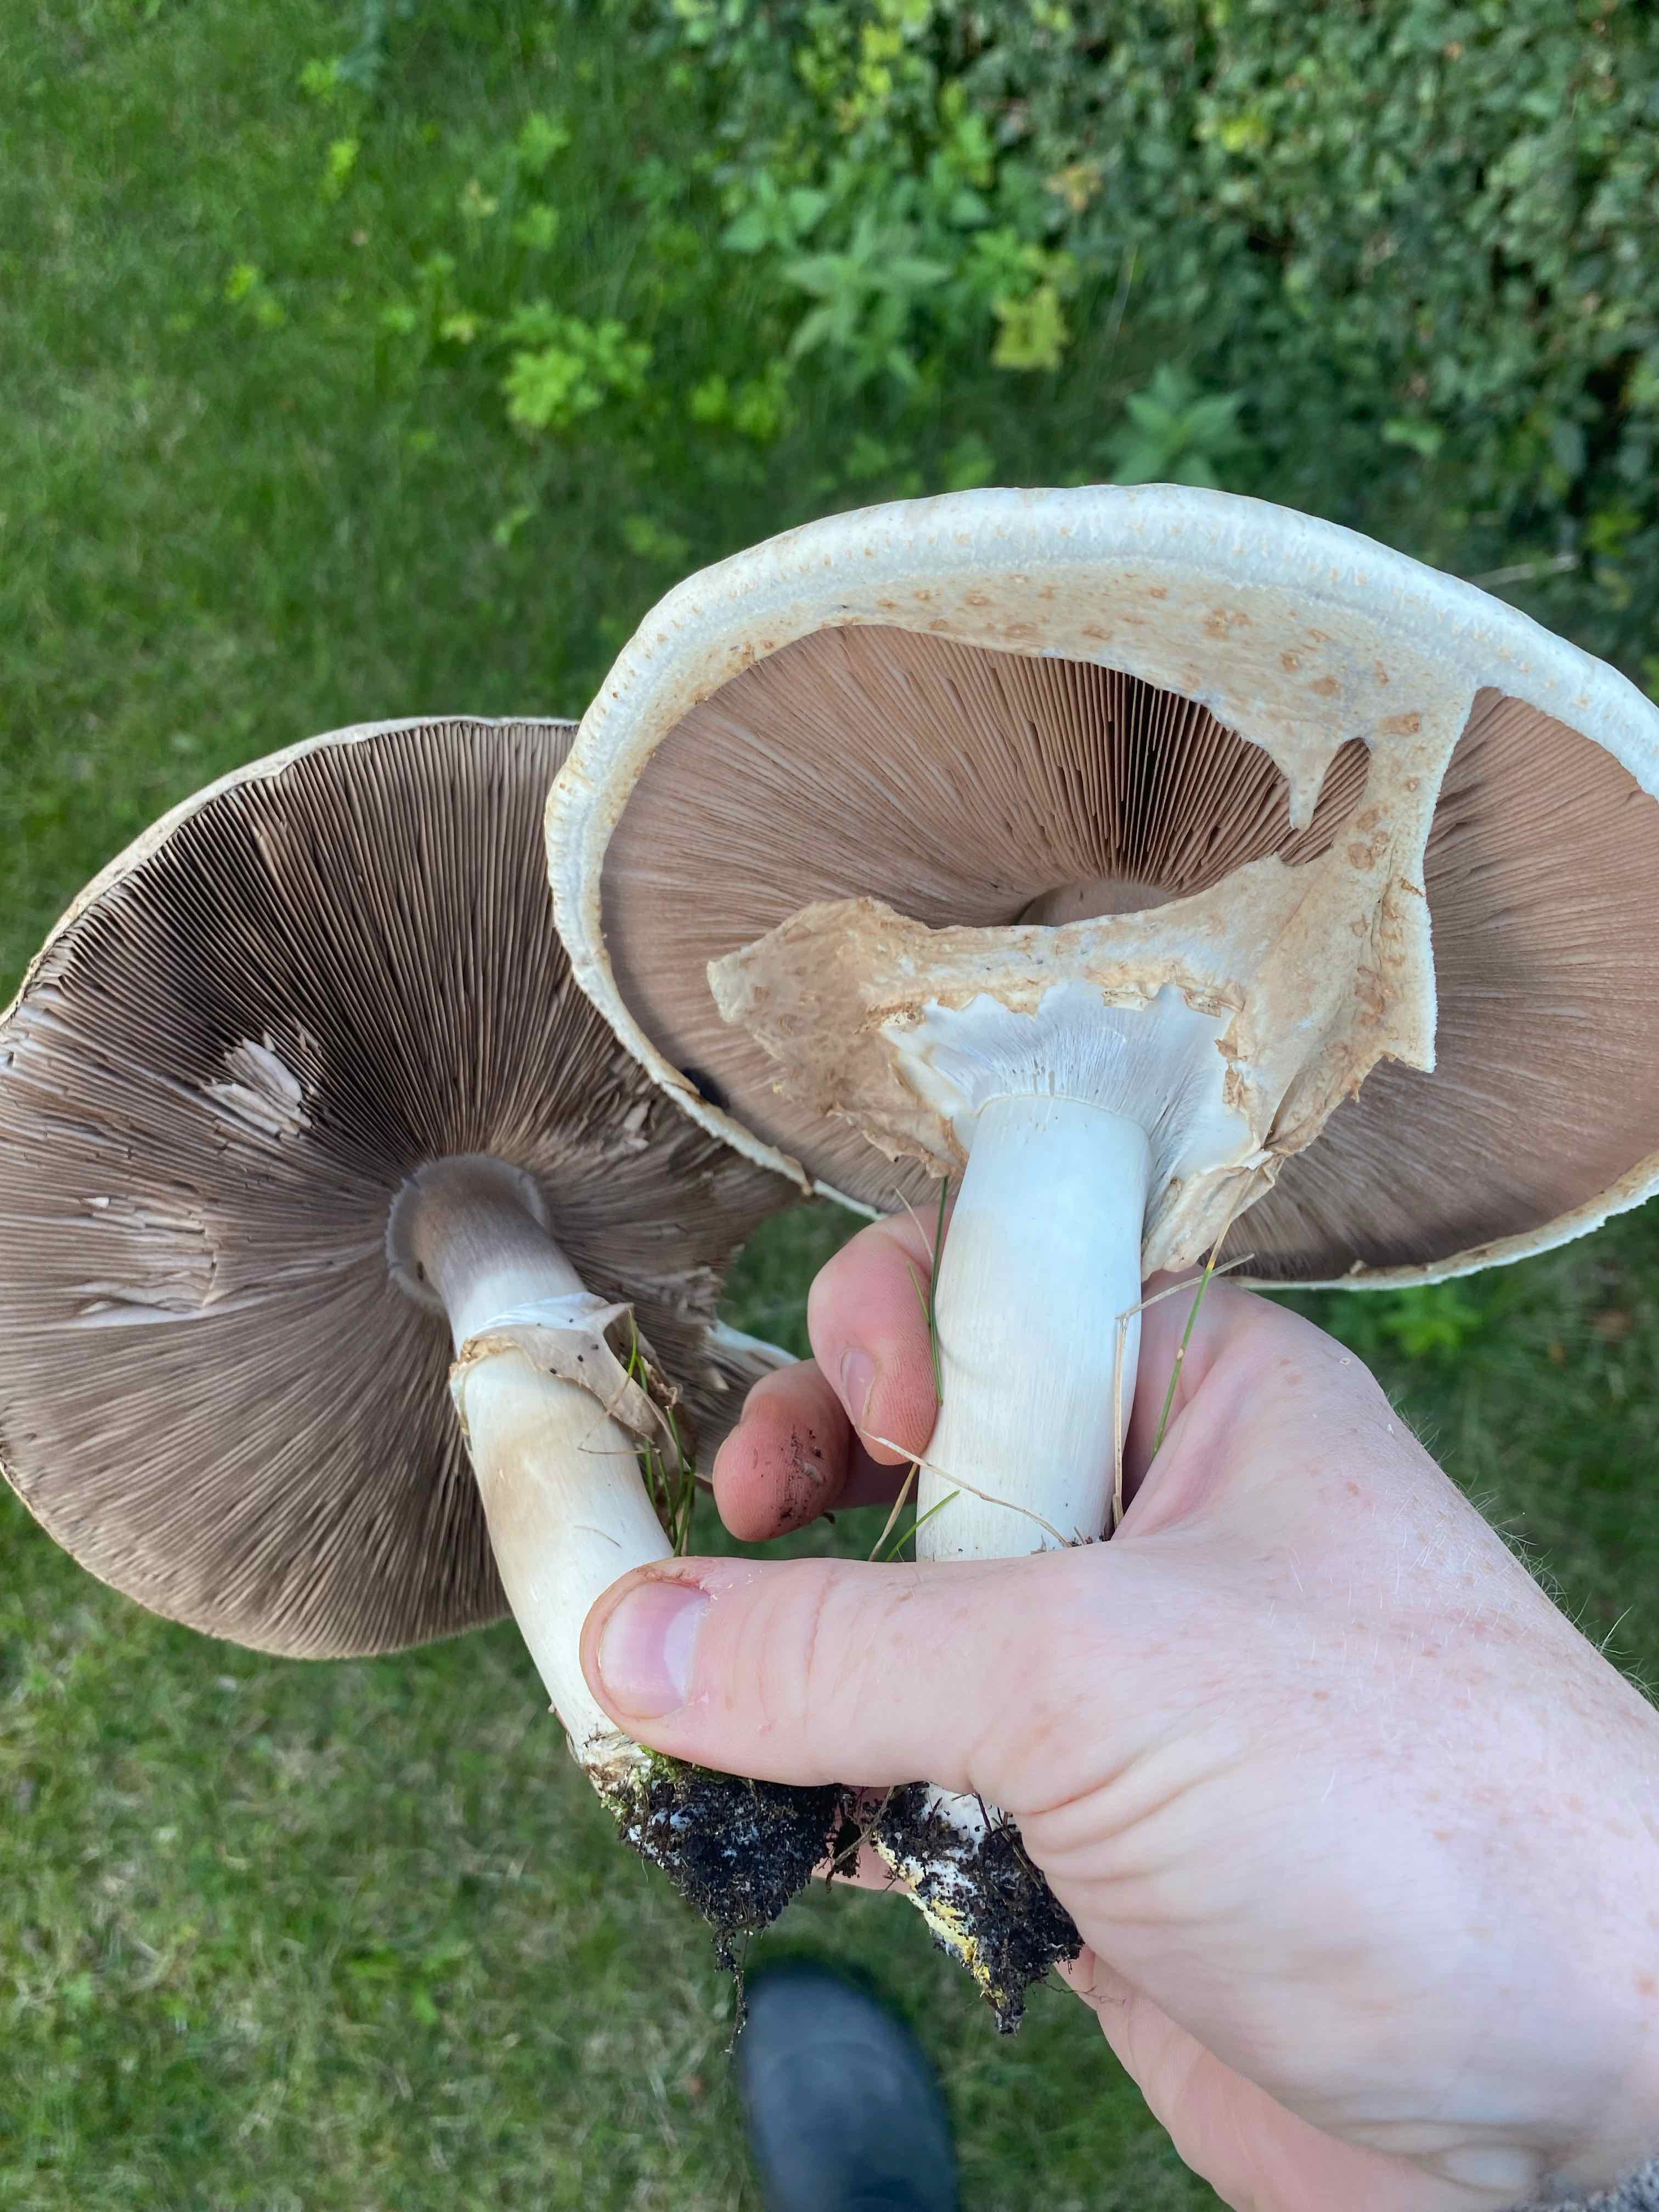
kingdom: Fungi
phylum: Basidiomycota
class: Agaricomycetes
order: Agaricales
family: Agaricaceae
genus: Agaricus
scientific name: Agaricus
